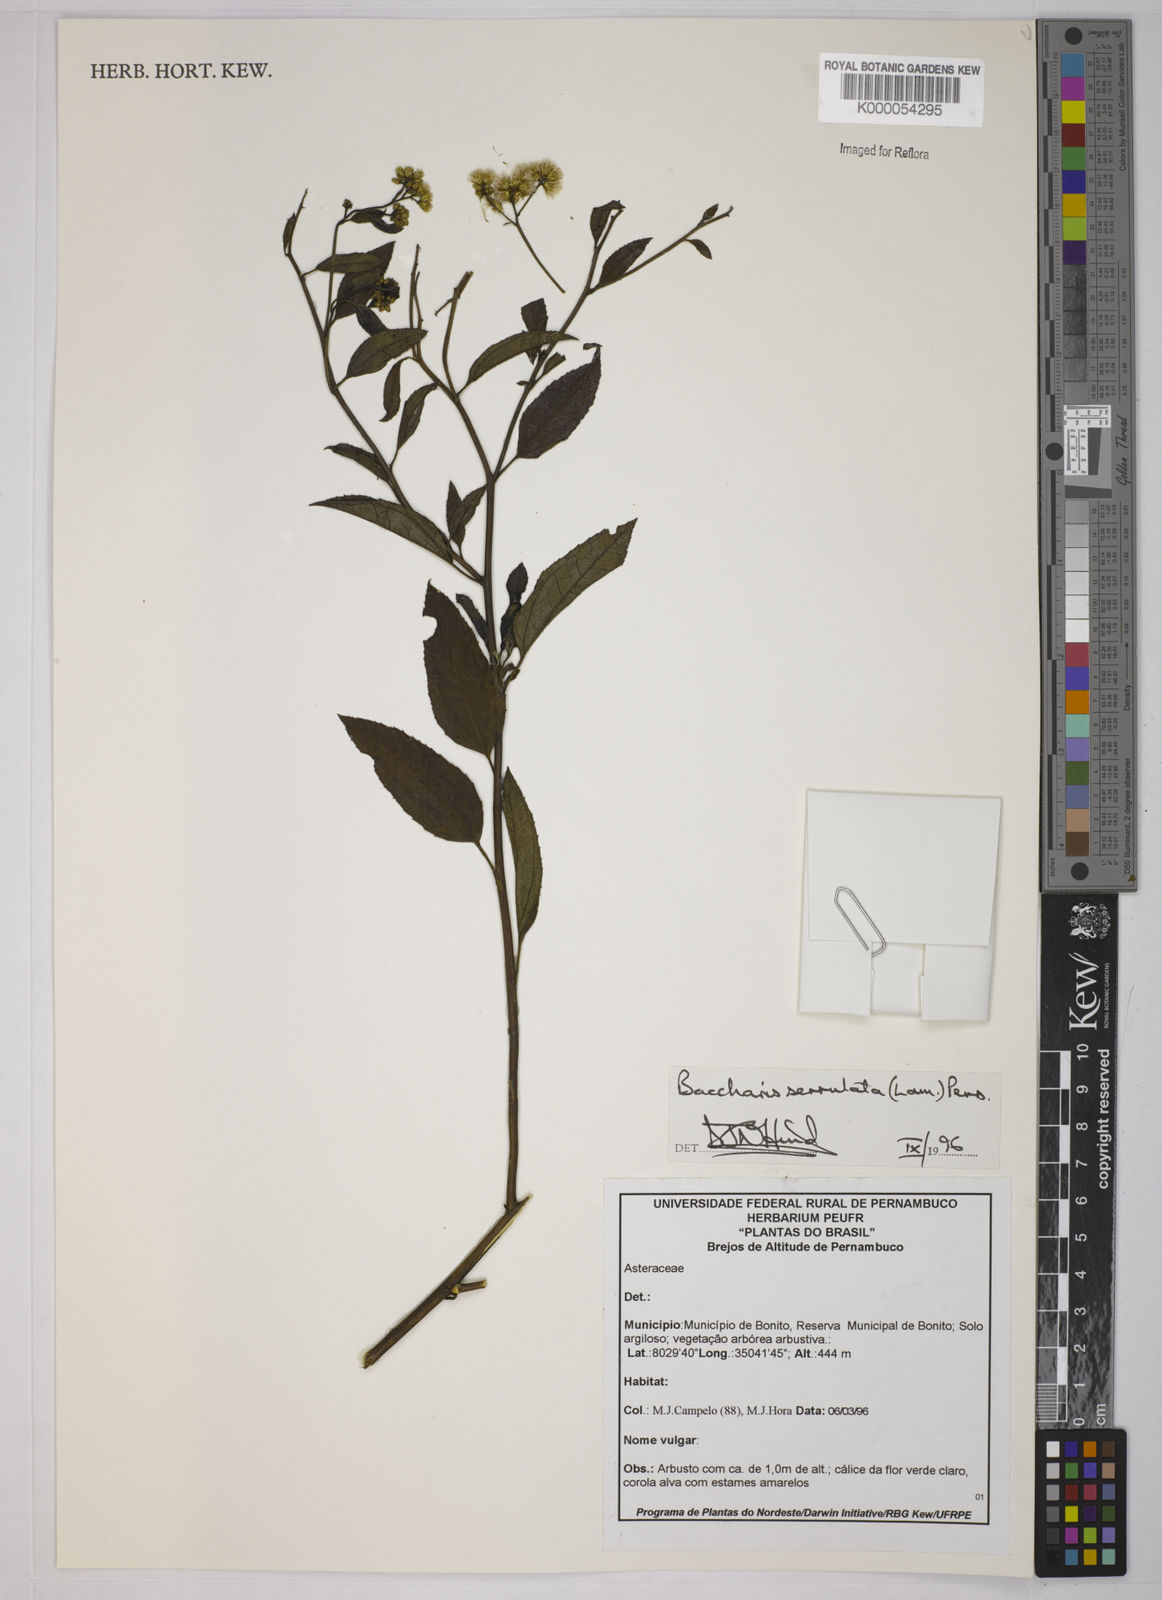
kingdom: Plantae
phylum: Tracheophyta
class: Magnoliopsida
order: Asterales
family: Asteraceae
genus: Baccharis
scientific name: Baccharis serrulata
